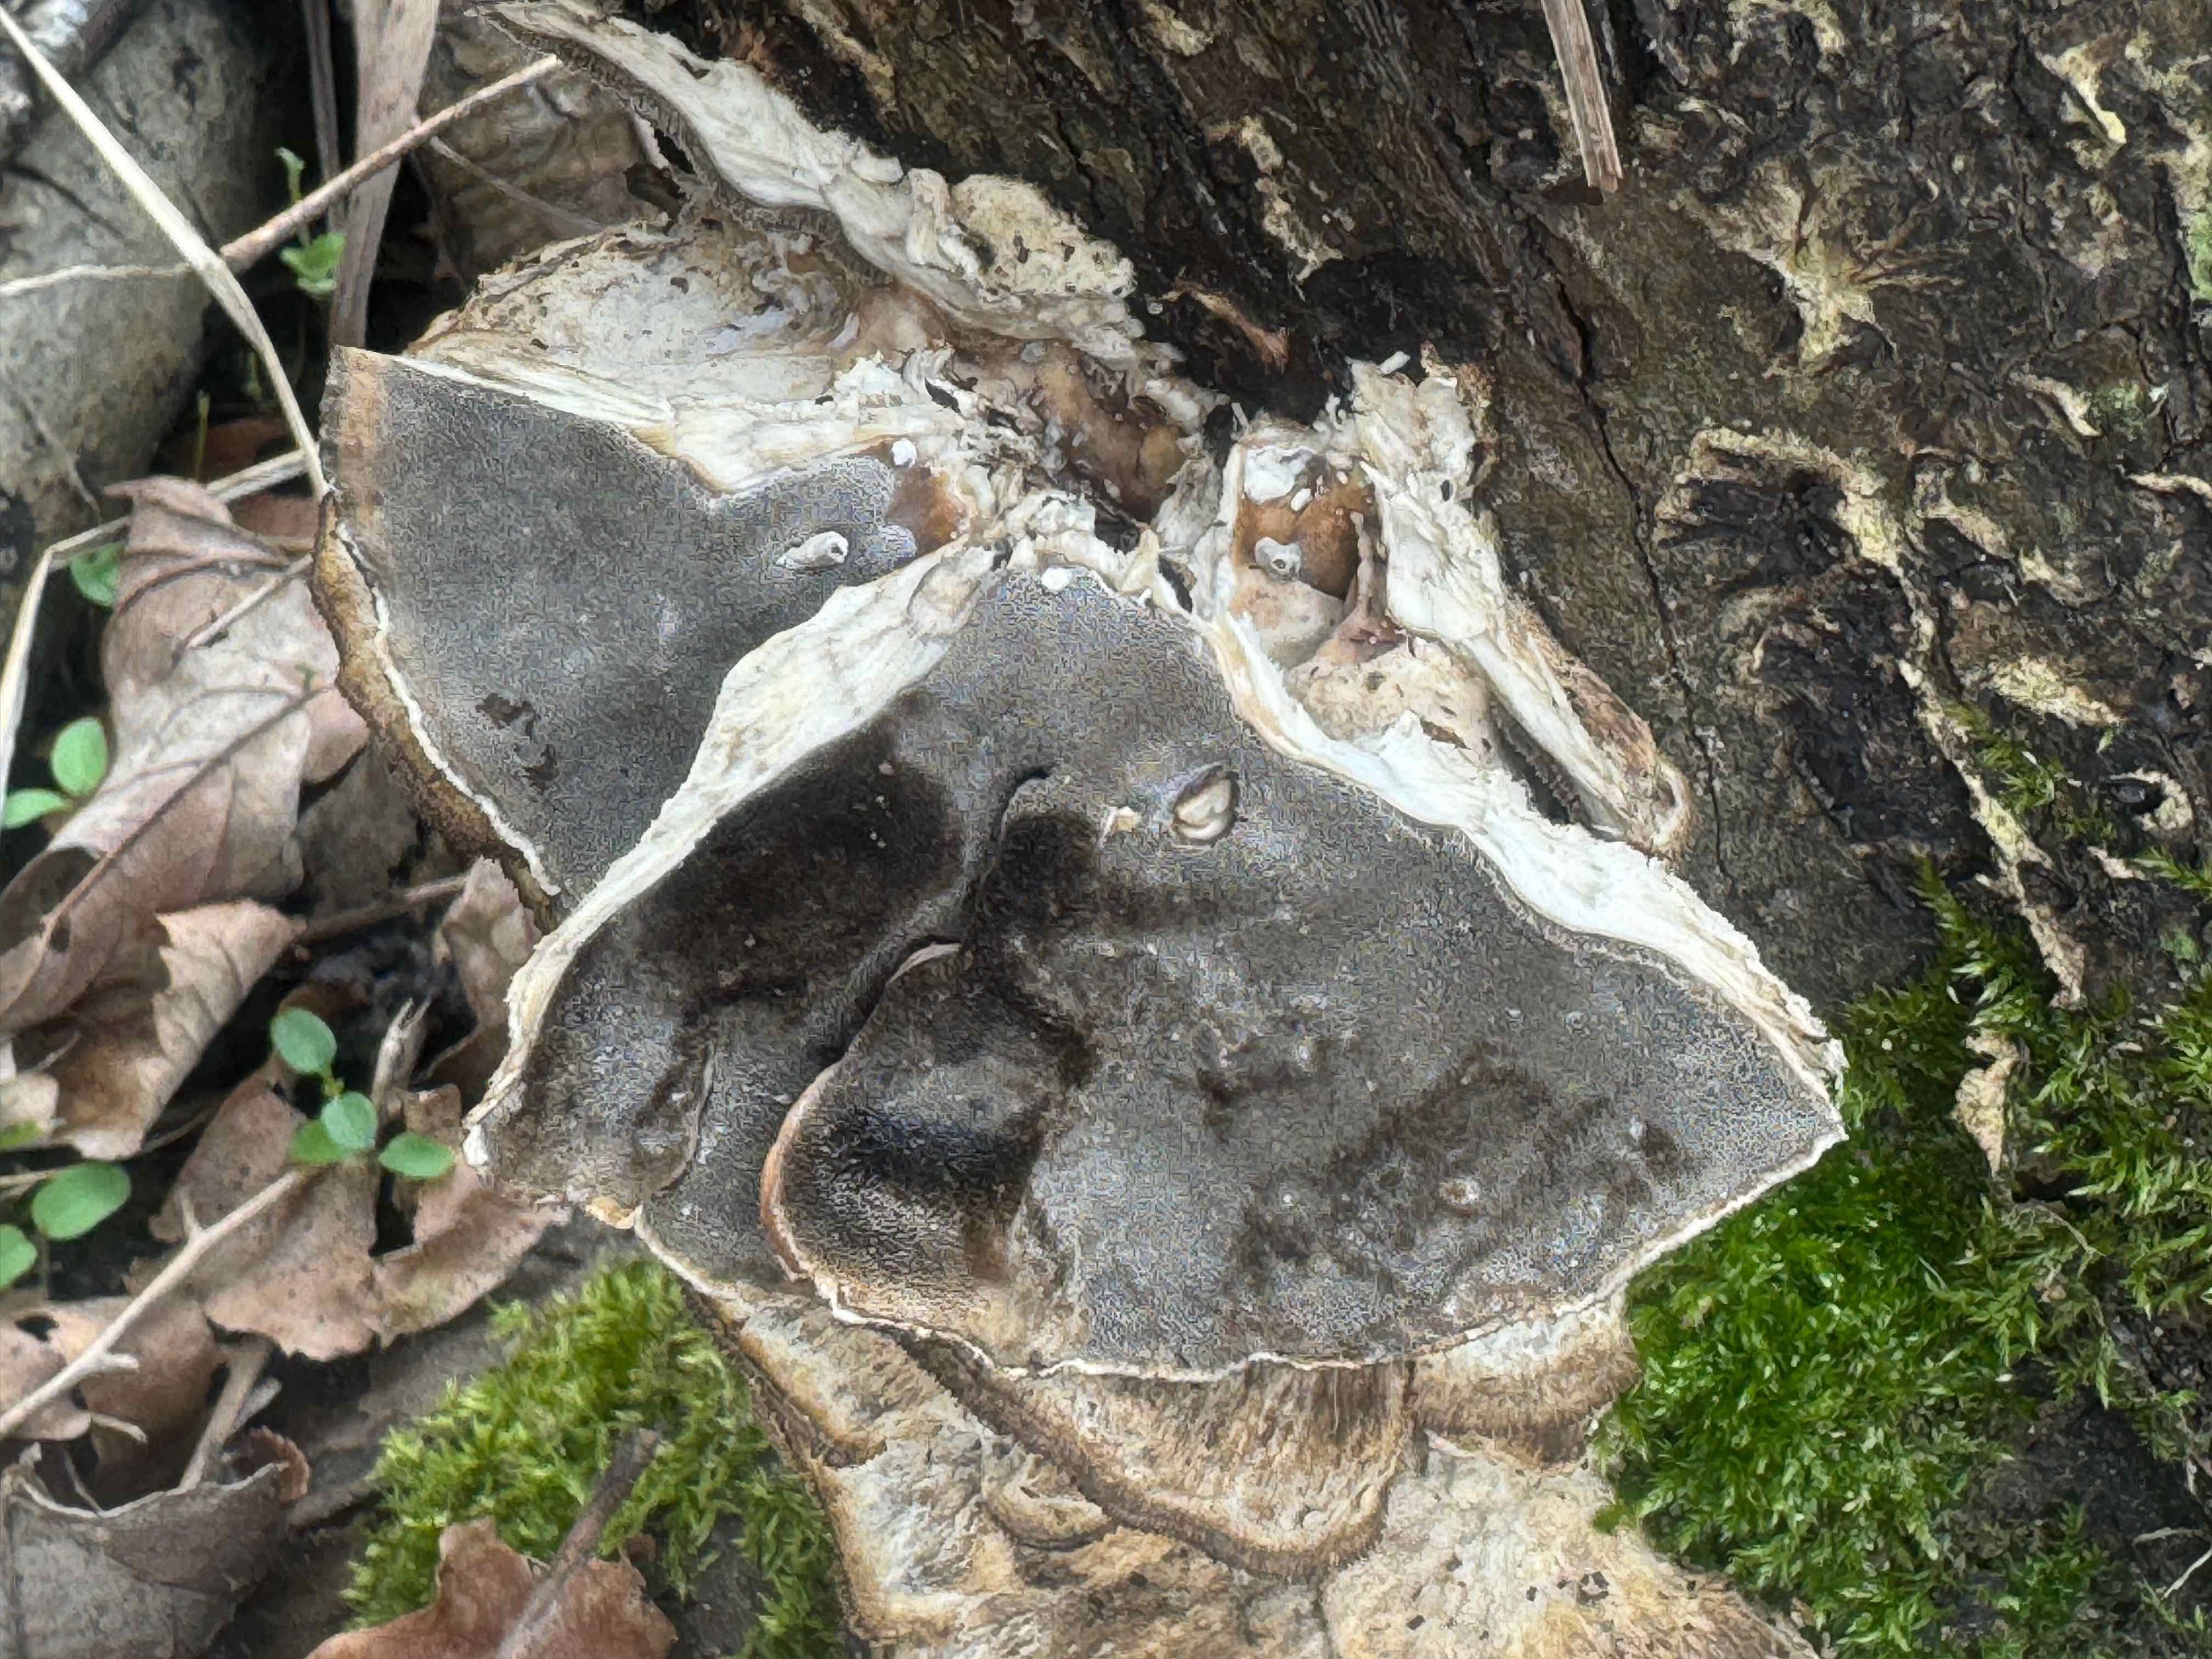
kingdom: Fungi
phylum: Basidiomycota
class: Agaricomycetes
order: Polyporales
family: Phanerochaetaceae
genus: Bjerkandera
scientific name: Bjerkandera adusta
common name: sveden sodporesvamp
